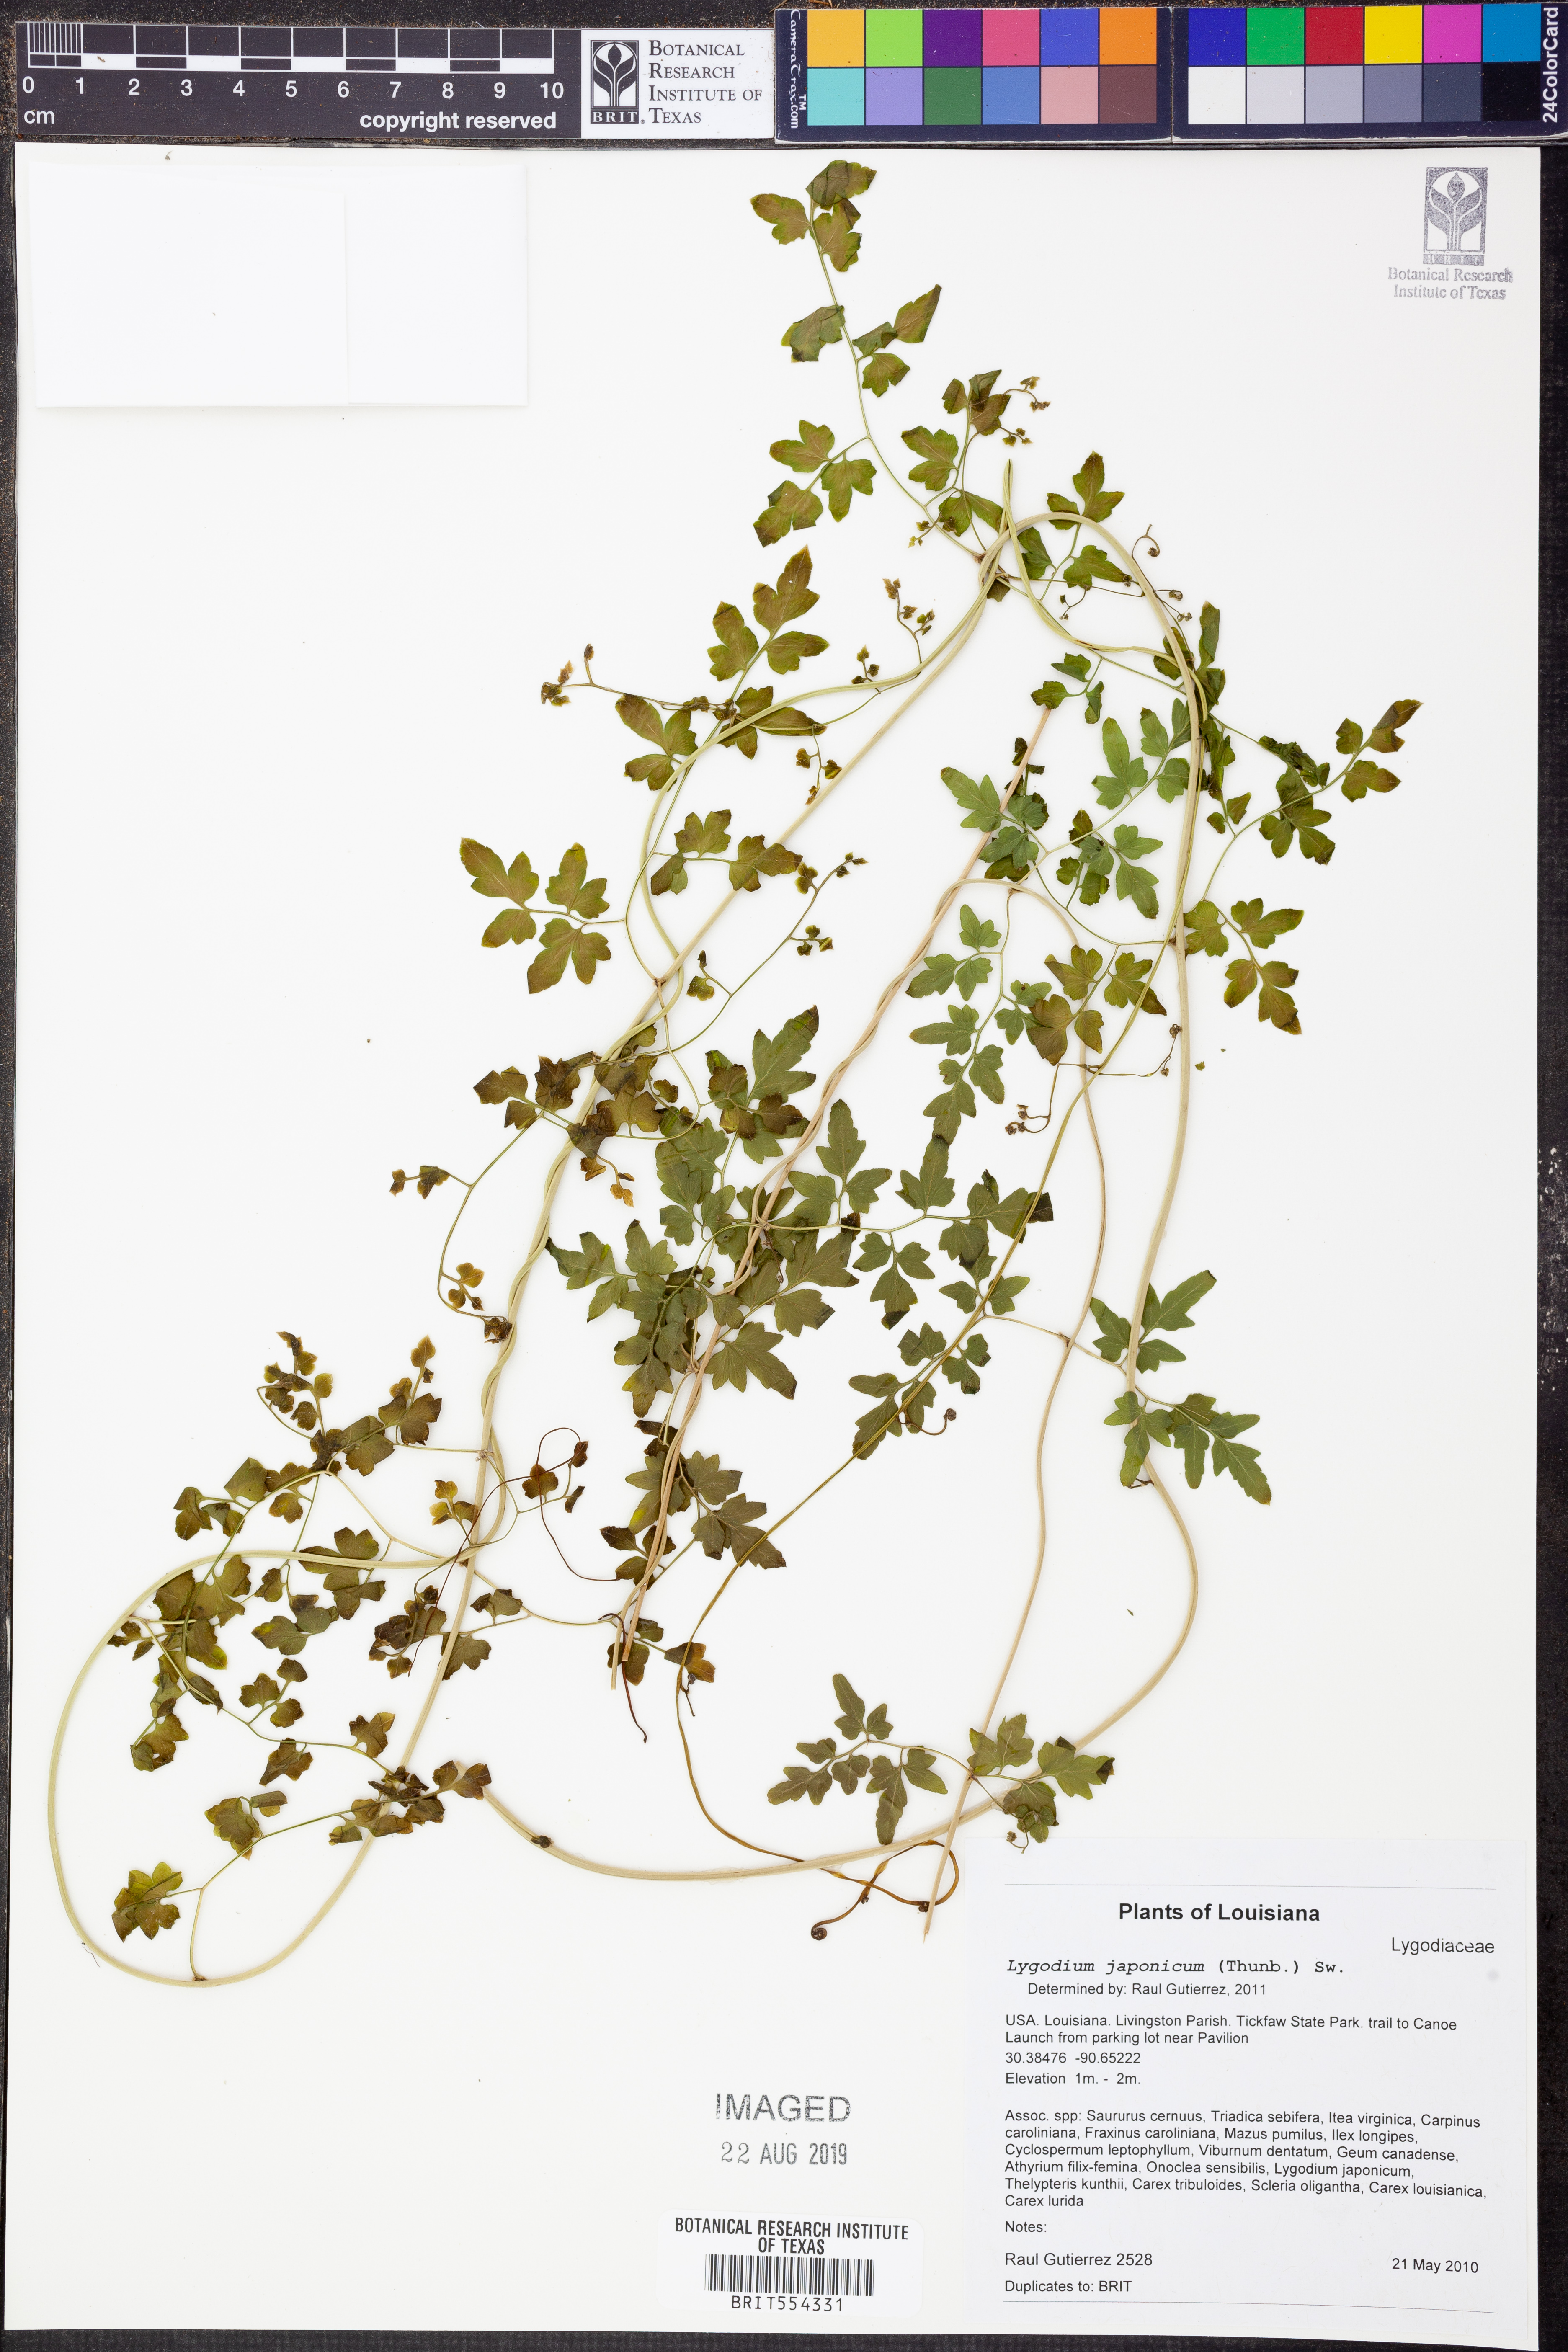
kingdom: Plantae
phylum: Tracheophyta
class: Polypodiopsida
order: Schizaeales
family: Lygodiaceae
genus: Lygodium
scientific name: Lygodium japonicum
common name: Japanese climbing fern
